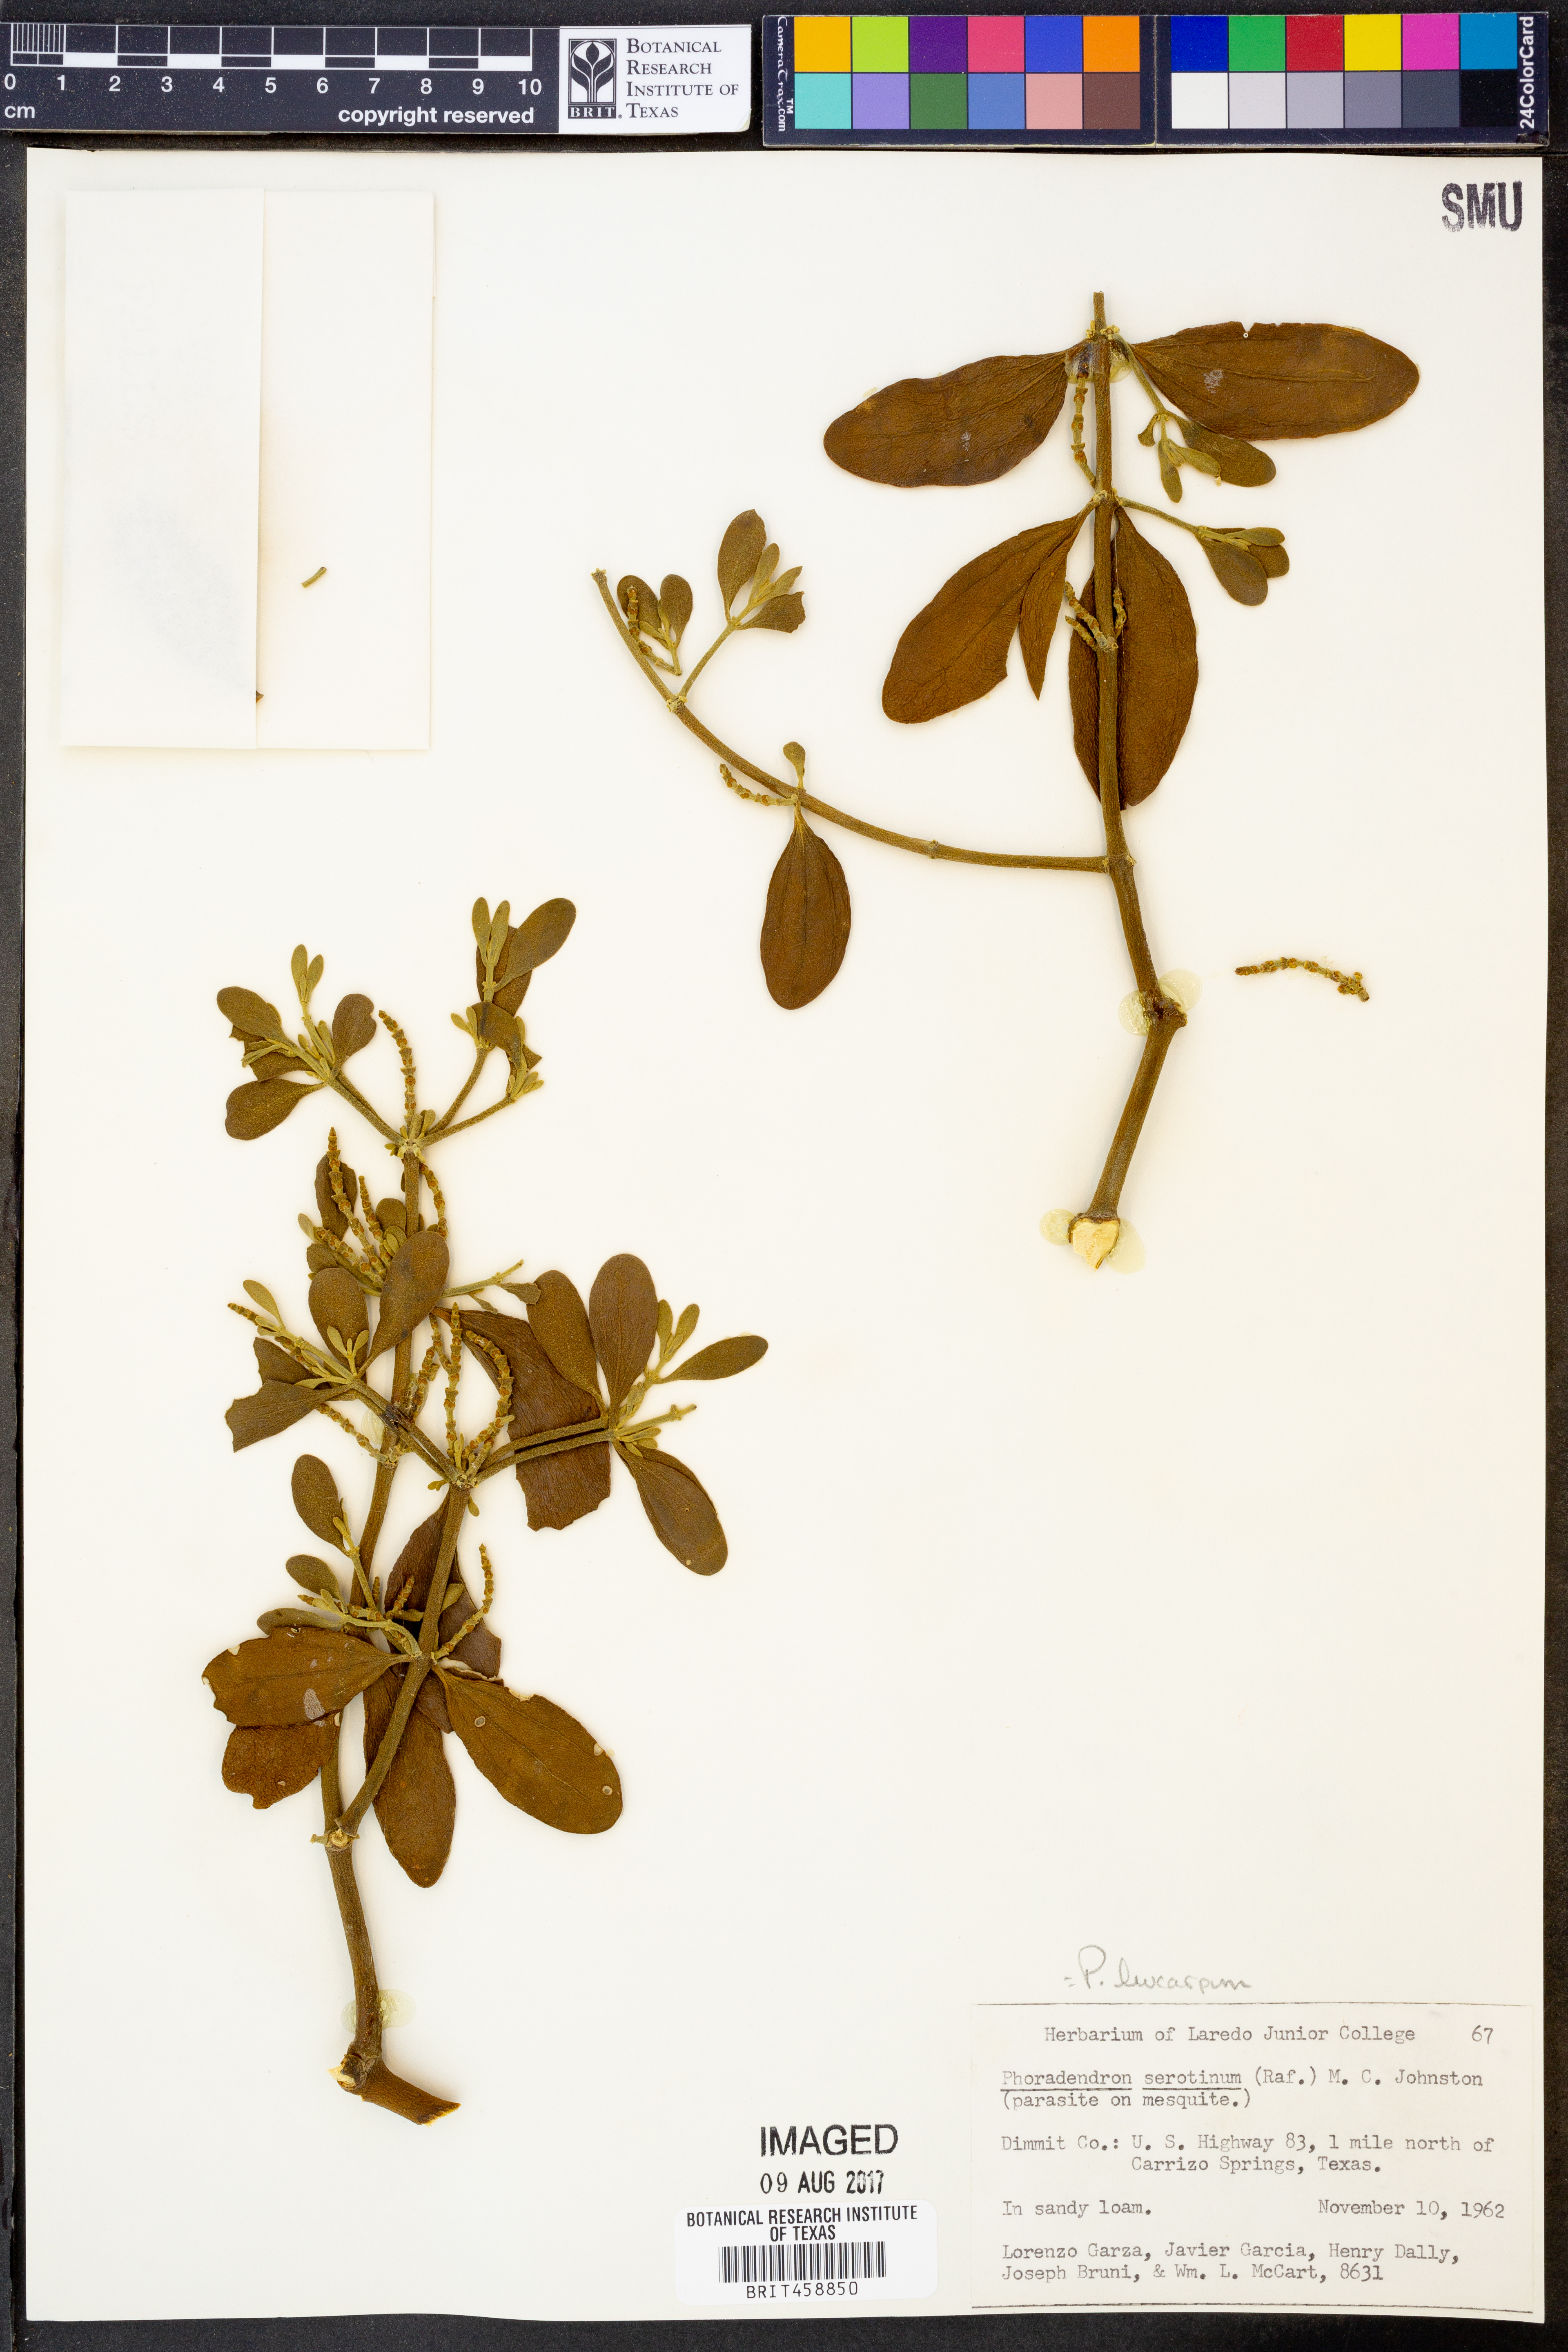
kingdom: Plantae
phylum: Tracheophyta
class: Magnoliopsida
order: Santalales
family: Viscaceae
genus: Phoradendron
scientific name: Phoradendron leucarpum
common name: Pacific mistletoe
